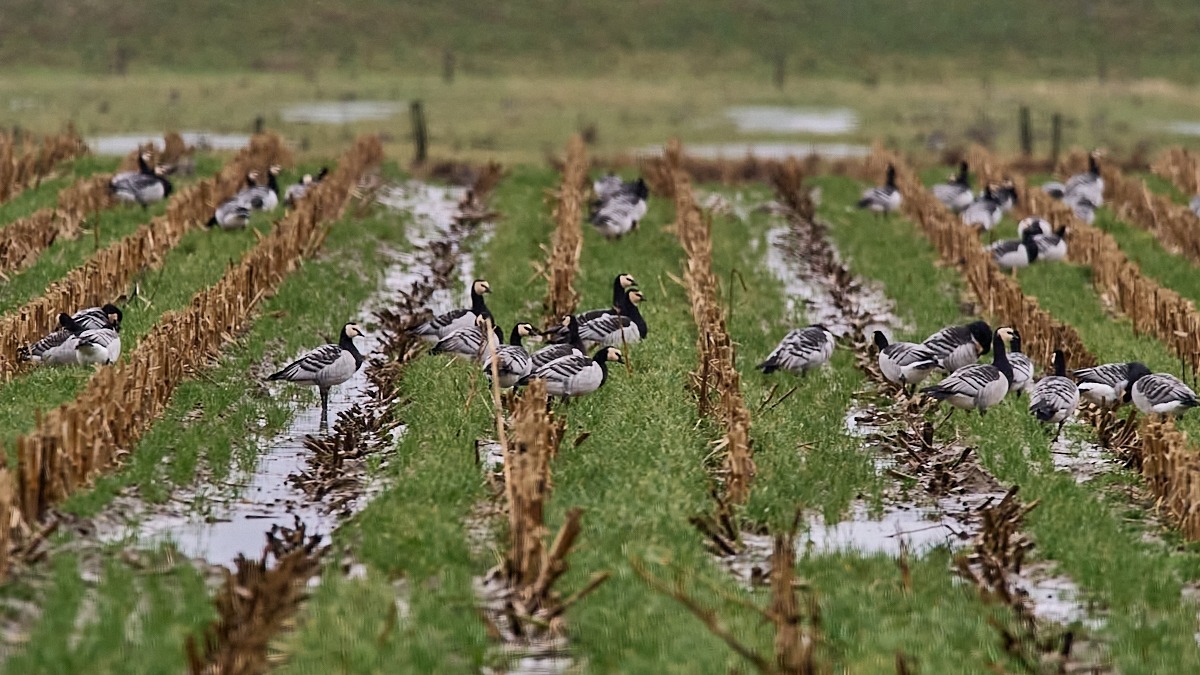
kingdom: Animalia
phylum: Chordata
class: Aves
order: Anseriformes
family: Anatidae
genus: Branta
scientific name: Branta leucopsis
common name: Bramgås
